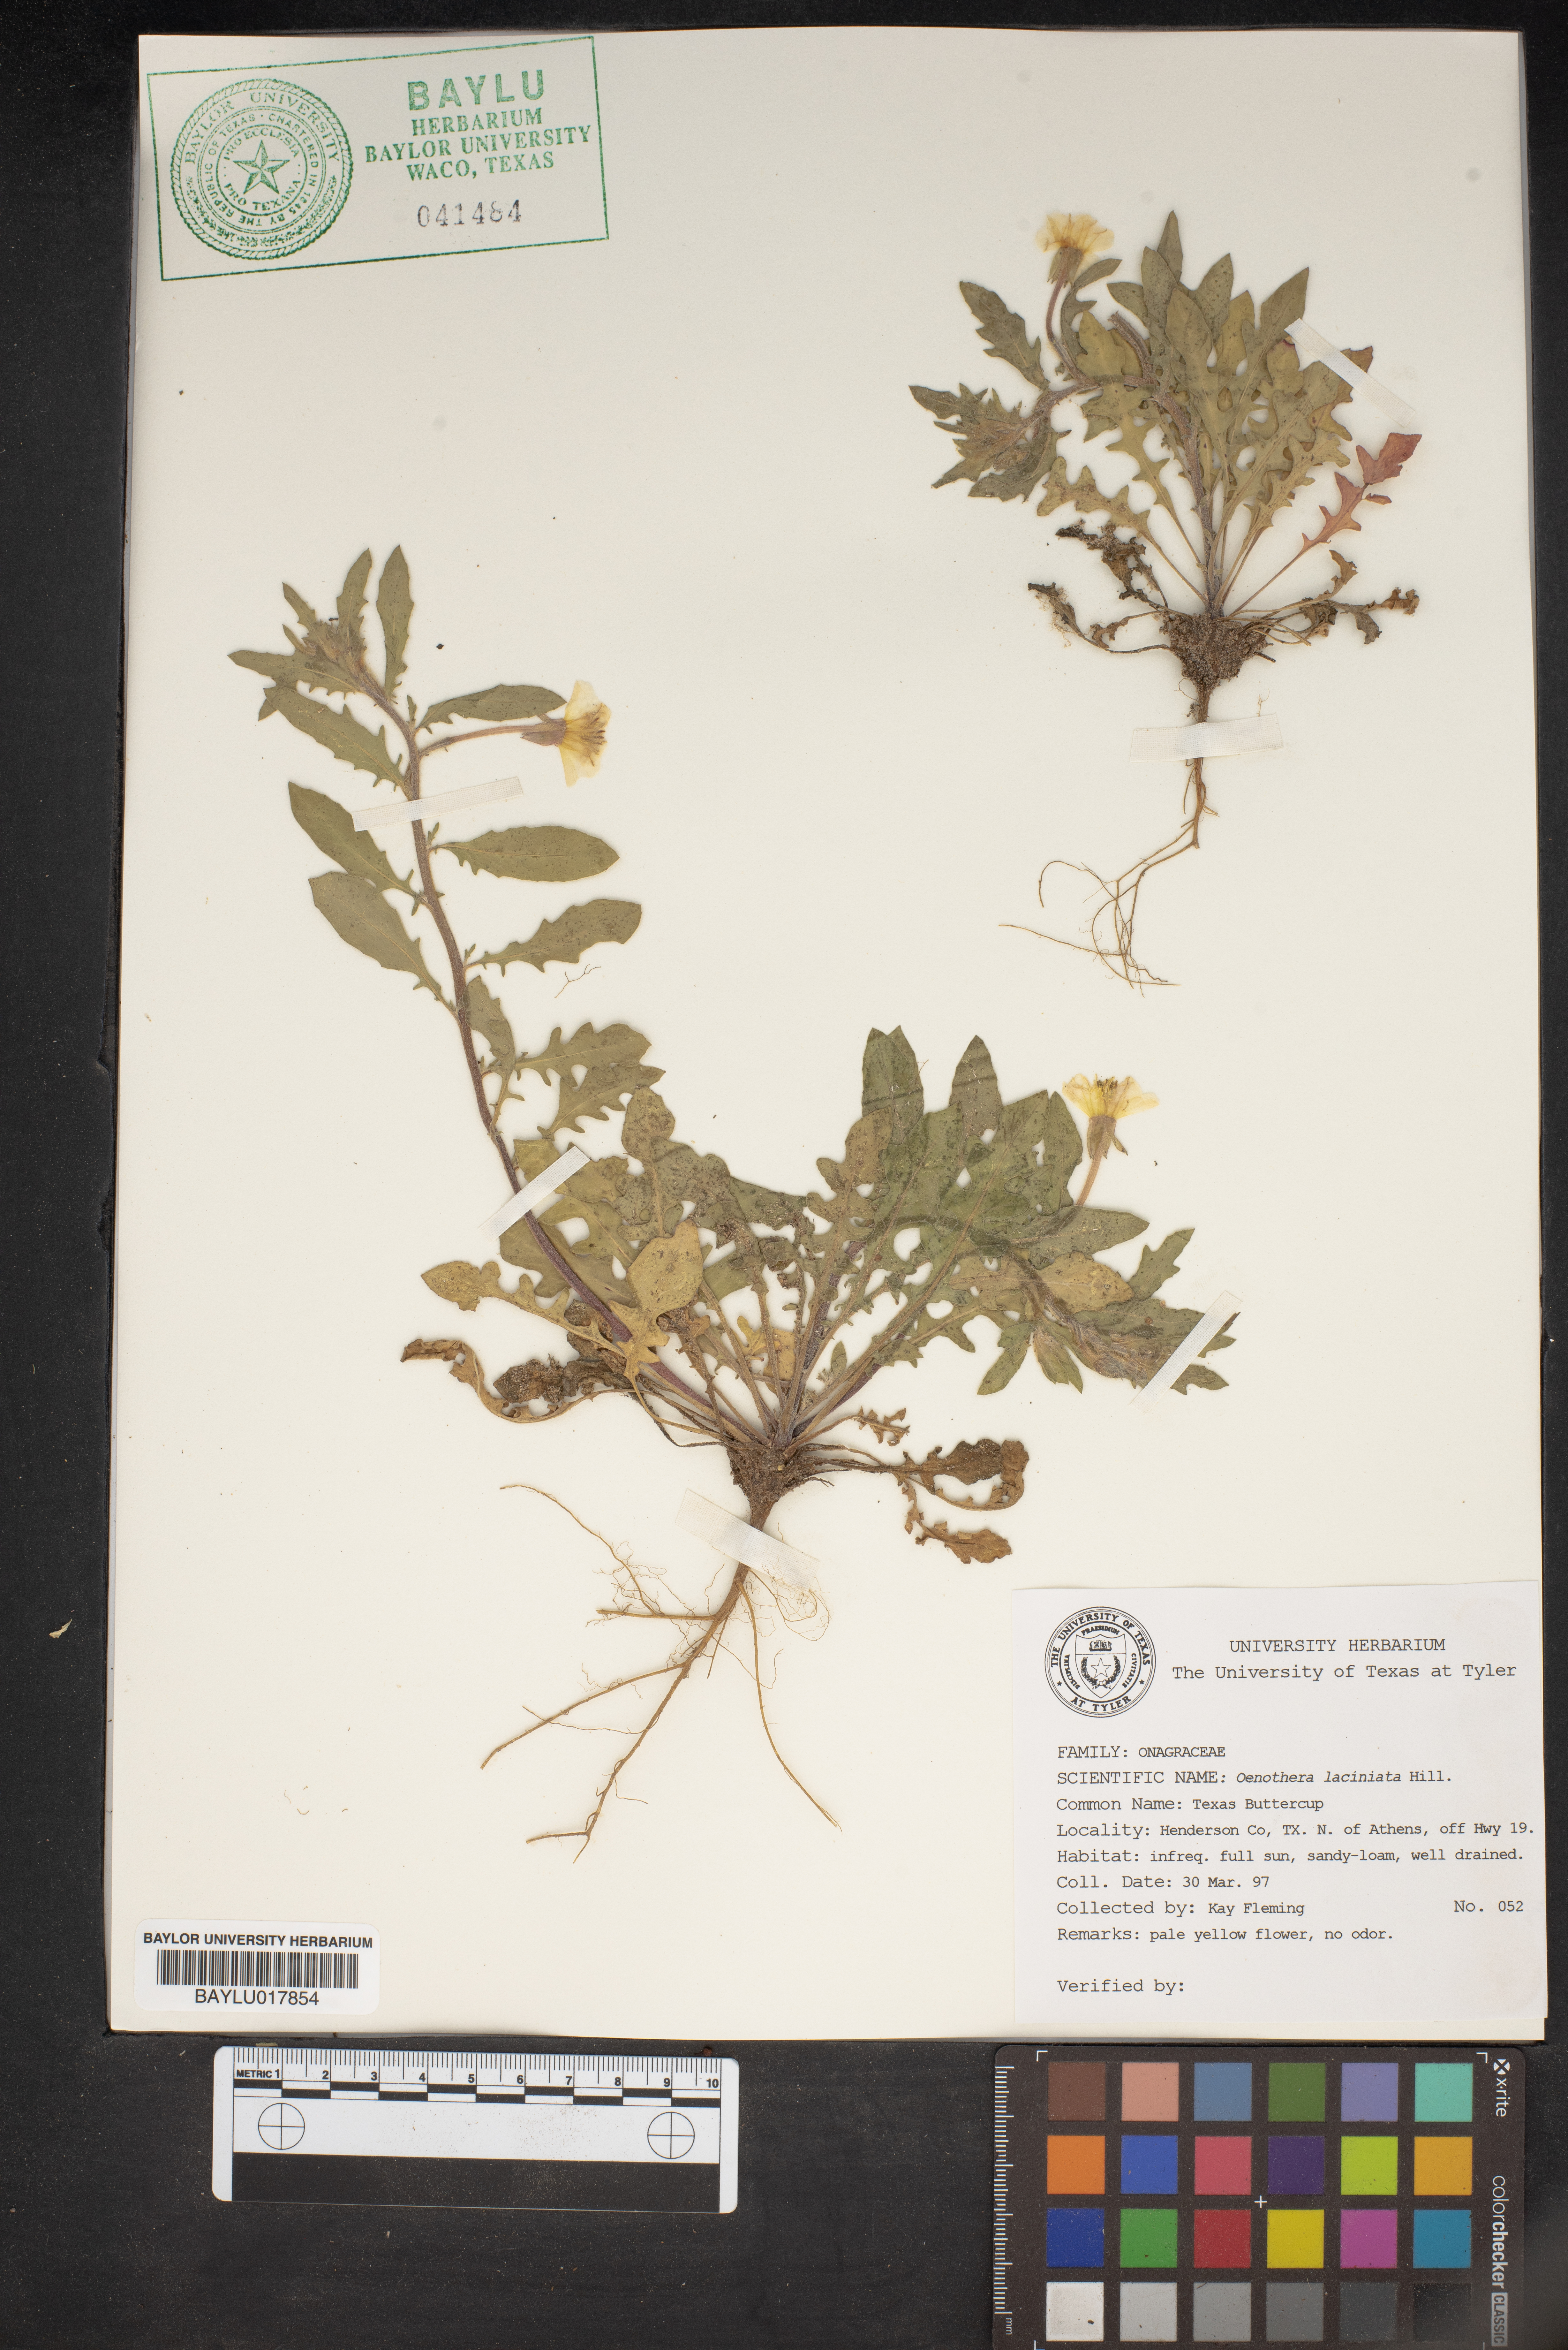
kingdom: Plantae
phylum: Tracheophyta
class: Magnoliopsida
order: Myrtales
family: Onagraceae
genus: Oenothera
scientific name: Oenothera laciniata
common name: Cut-leaved evening-primrose
